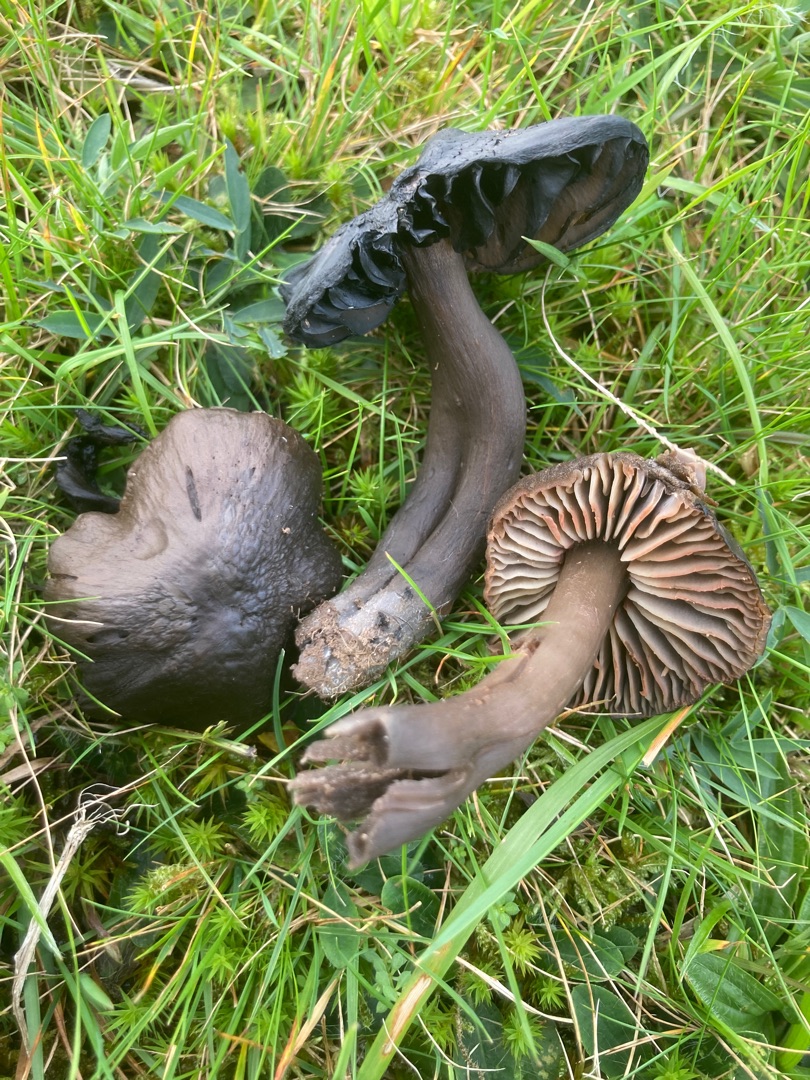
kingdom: Fungi
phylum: Basidiomycota
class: Agaricomycetes
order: Agaricales
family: Hygrophoraceae
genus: Neohygrocybe
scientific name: Neohygrocybe ovina
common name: Rødmende vokshat
